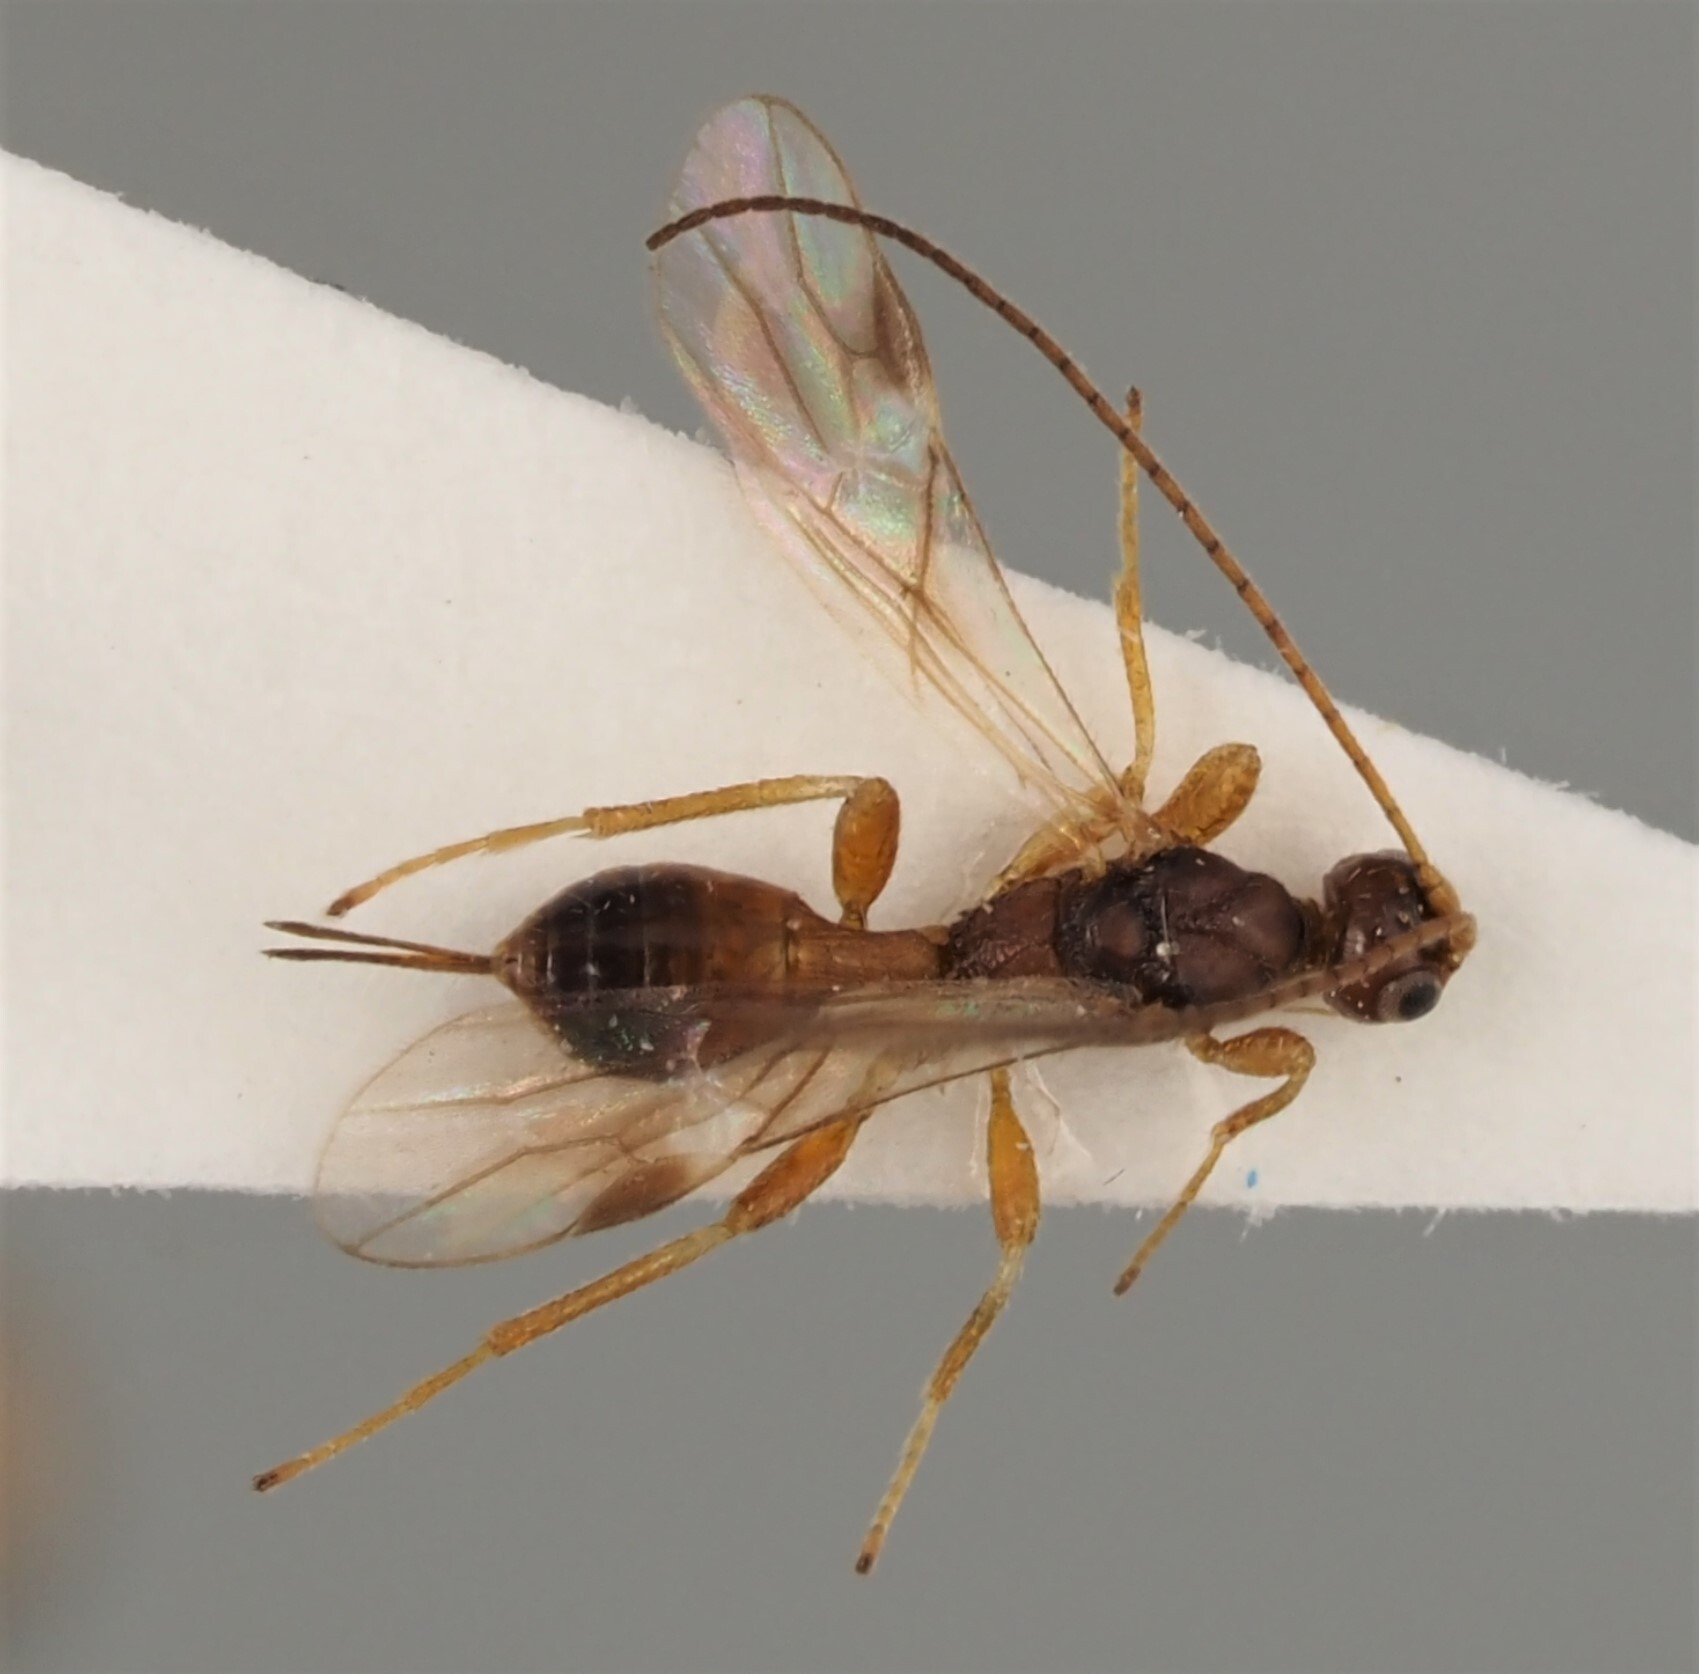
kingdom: Animalia
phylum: Arthropoda
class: Insecta
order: Hymenoptera
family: Braconidae
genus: Spathius
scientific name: Spathius brevicaudis
